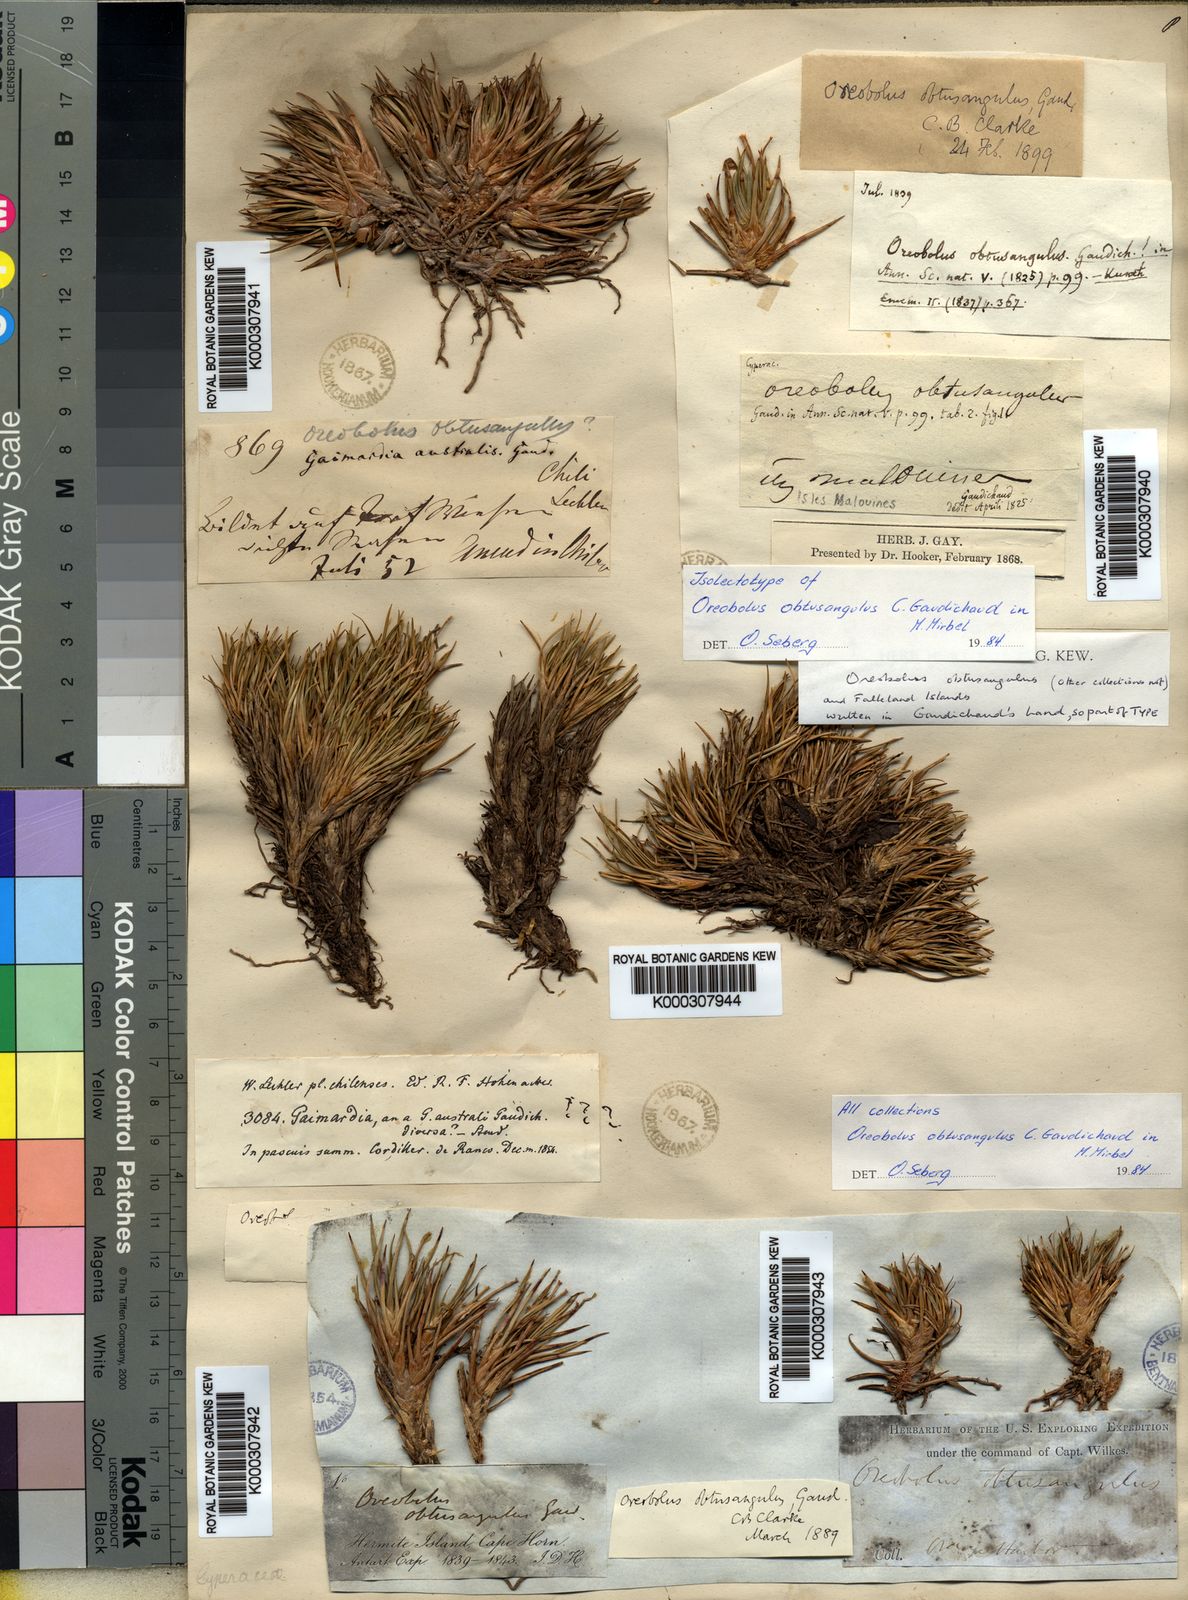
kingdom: Plantae
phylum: Tracheophyta
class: Liliopsida
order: Poales
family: Cyperaceae
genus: Oreobolus
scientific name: Oreobolus obtusangulus
